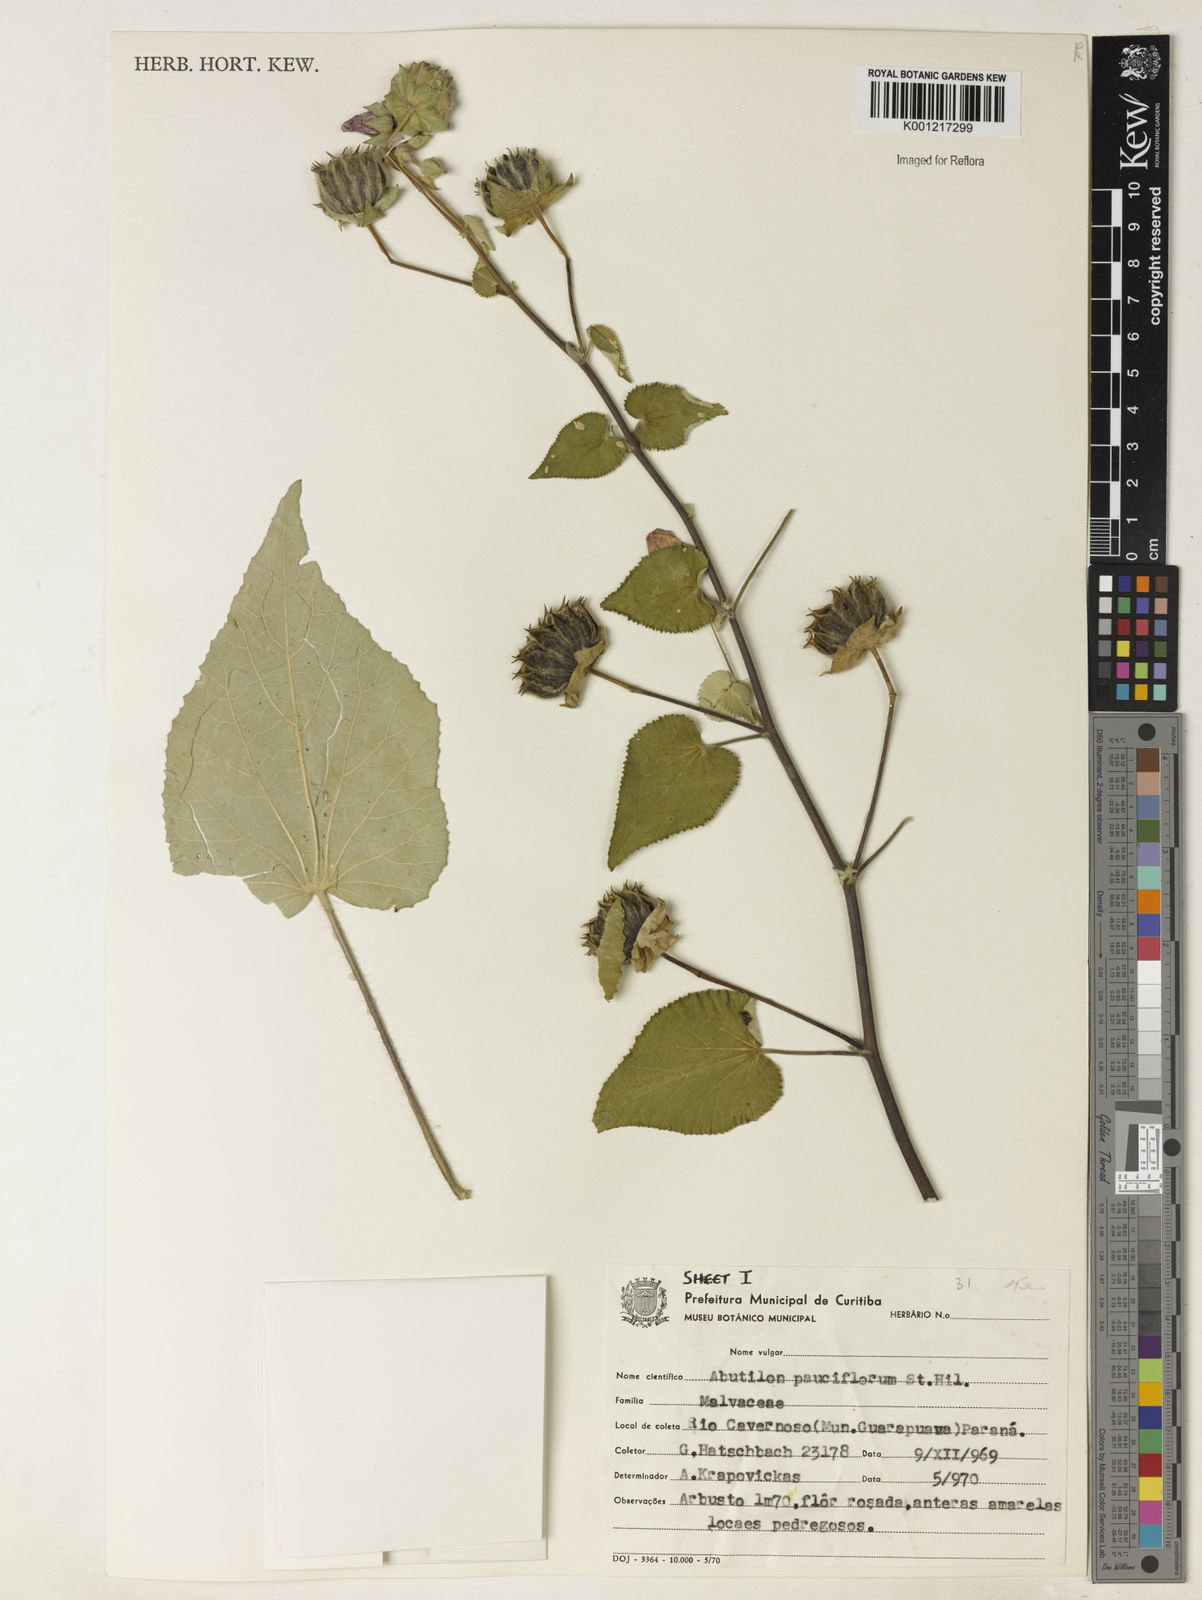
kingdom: Plantae
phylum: Tracheophyta
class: Magnoliopsida
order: Malvales
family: Malvaceae
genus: Callianthe
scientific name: Callianthe pauciflora
